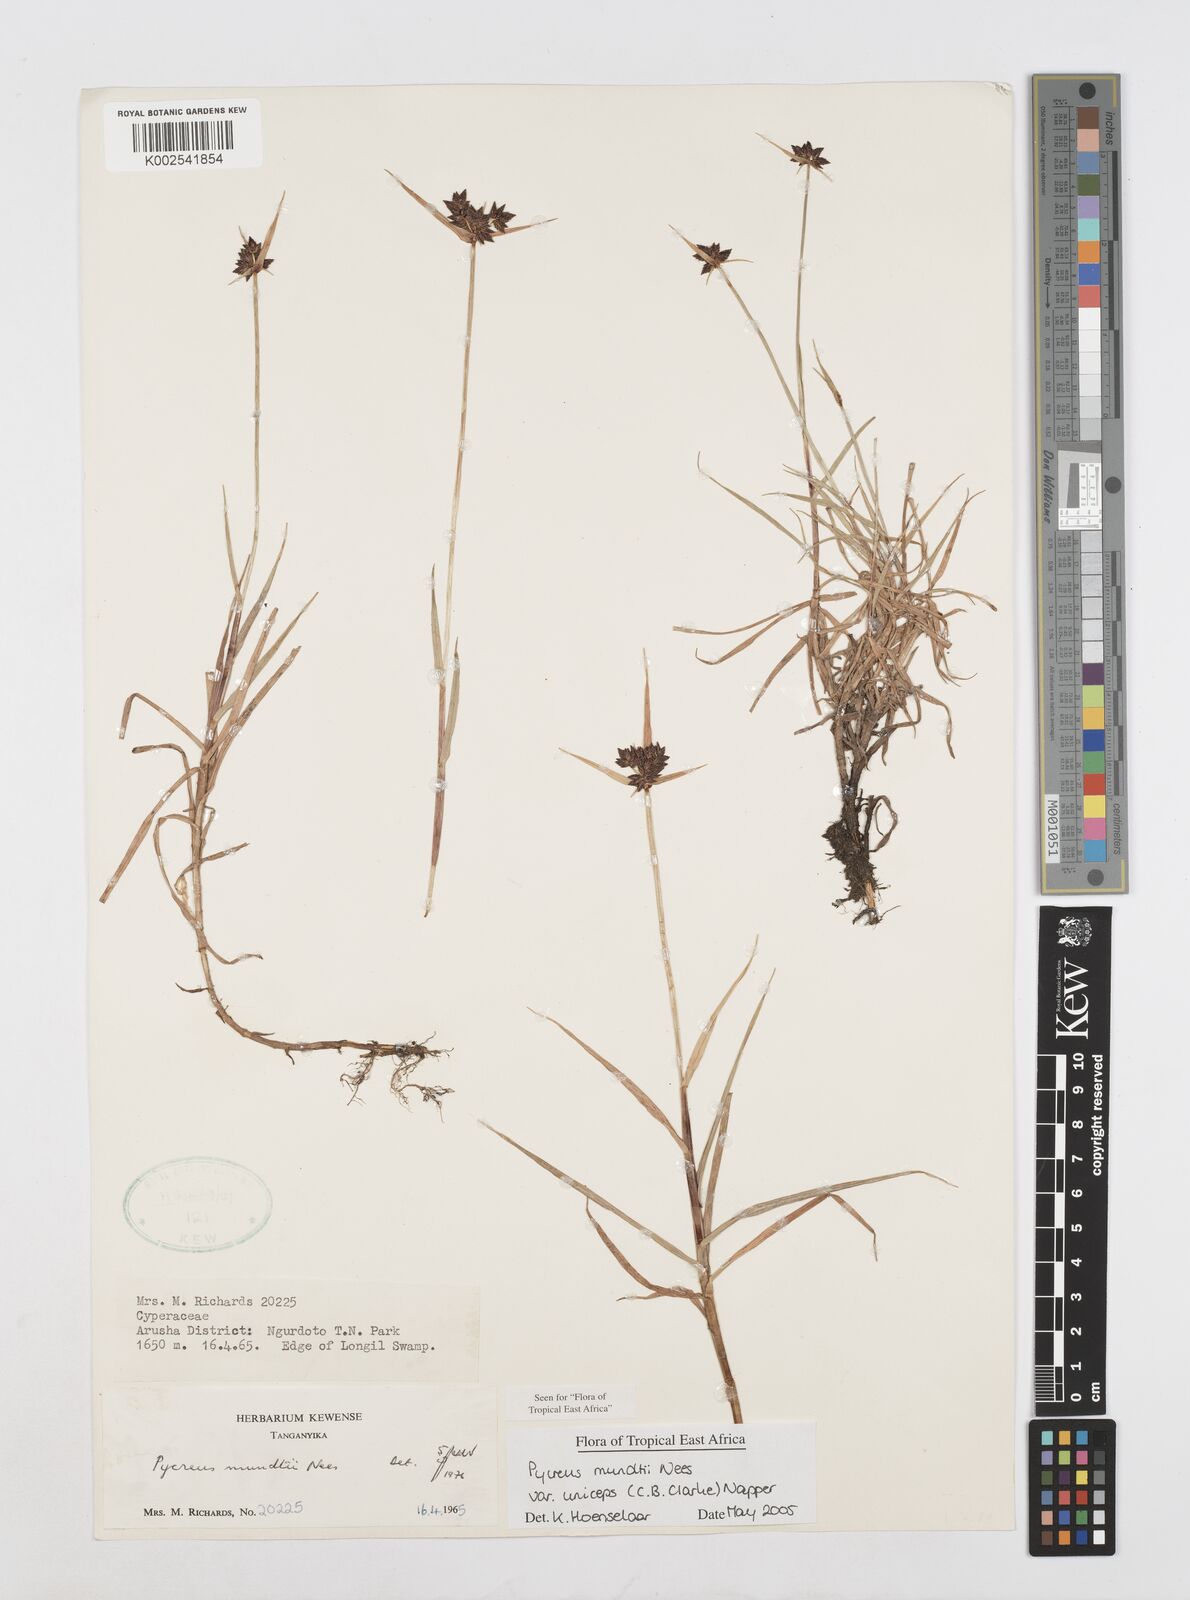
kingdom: Plantae
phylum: Tracheophyta
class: Liliopsida
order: Poales
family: Cyperaceae
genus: Cyperus
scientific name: Cyperus mundii
